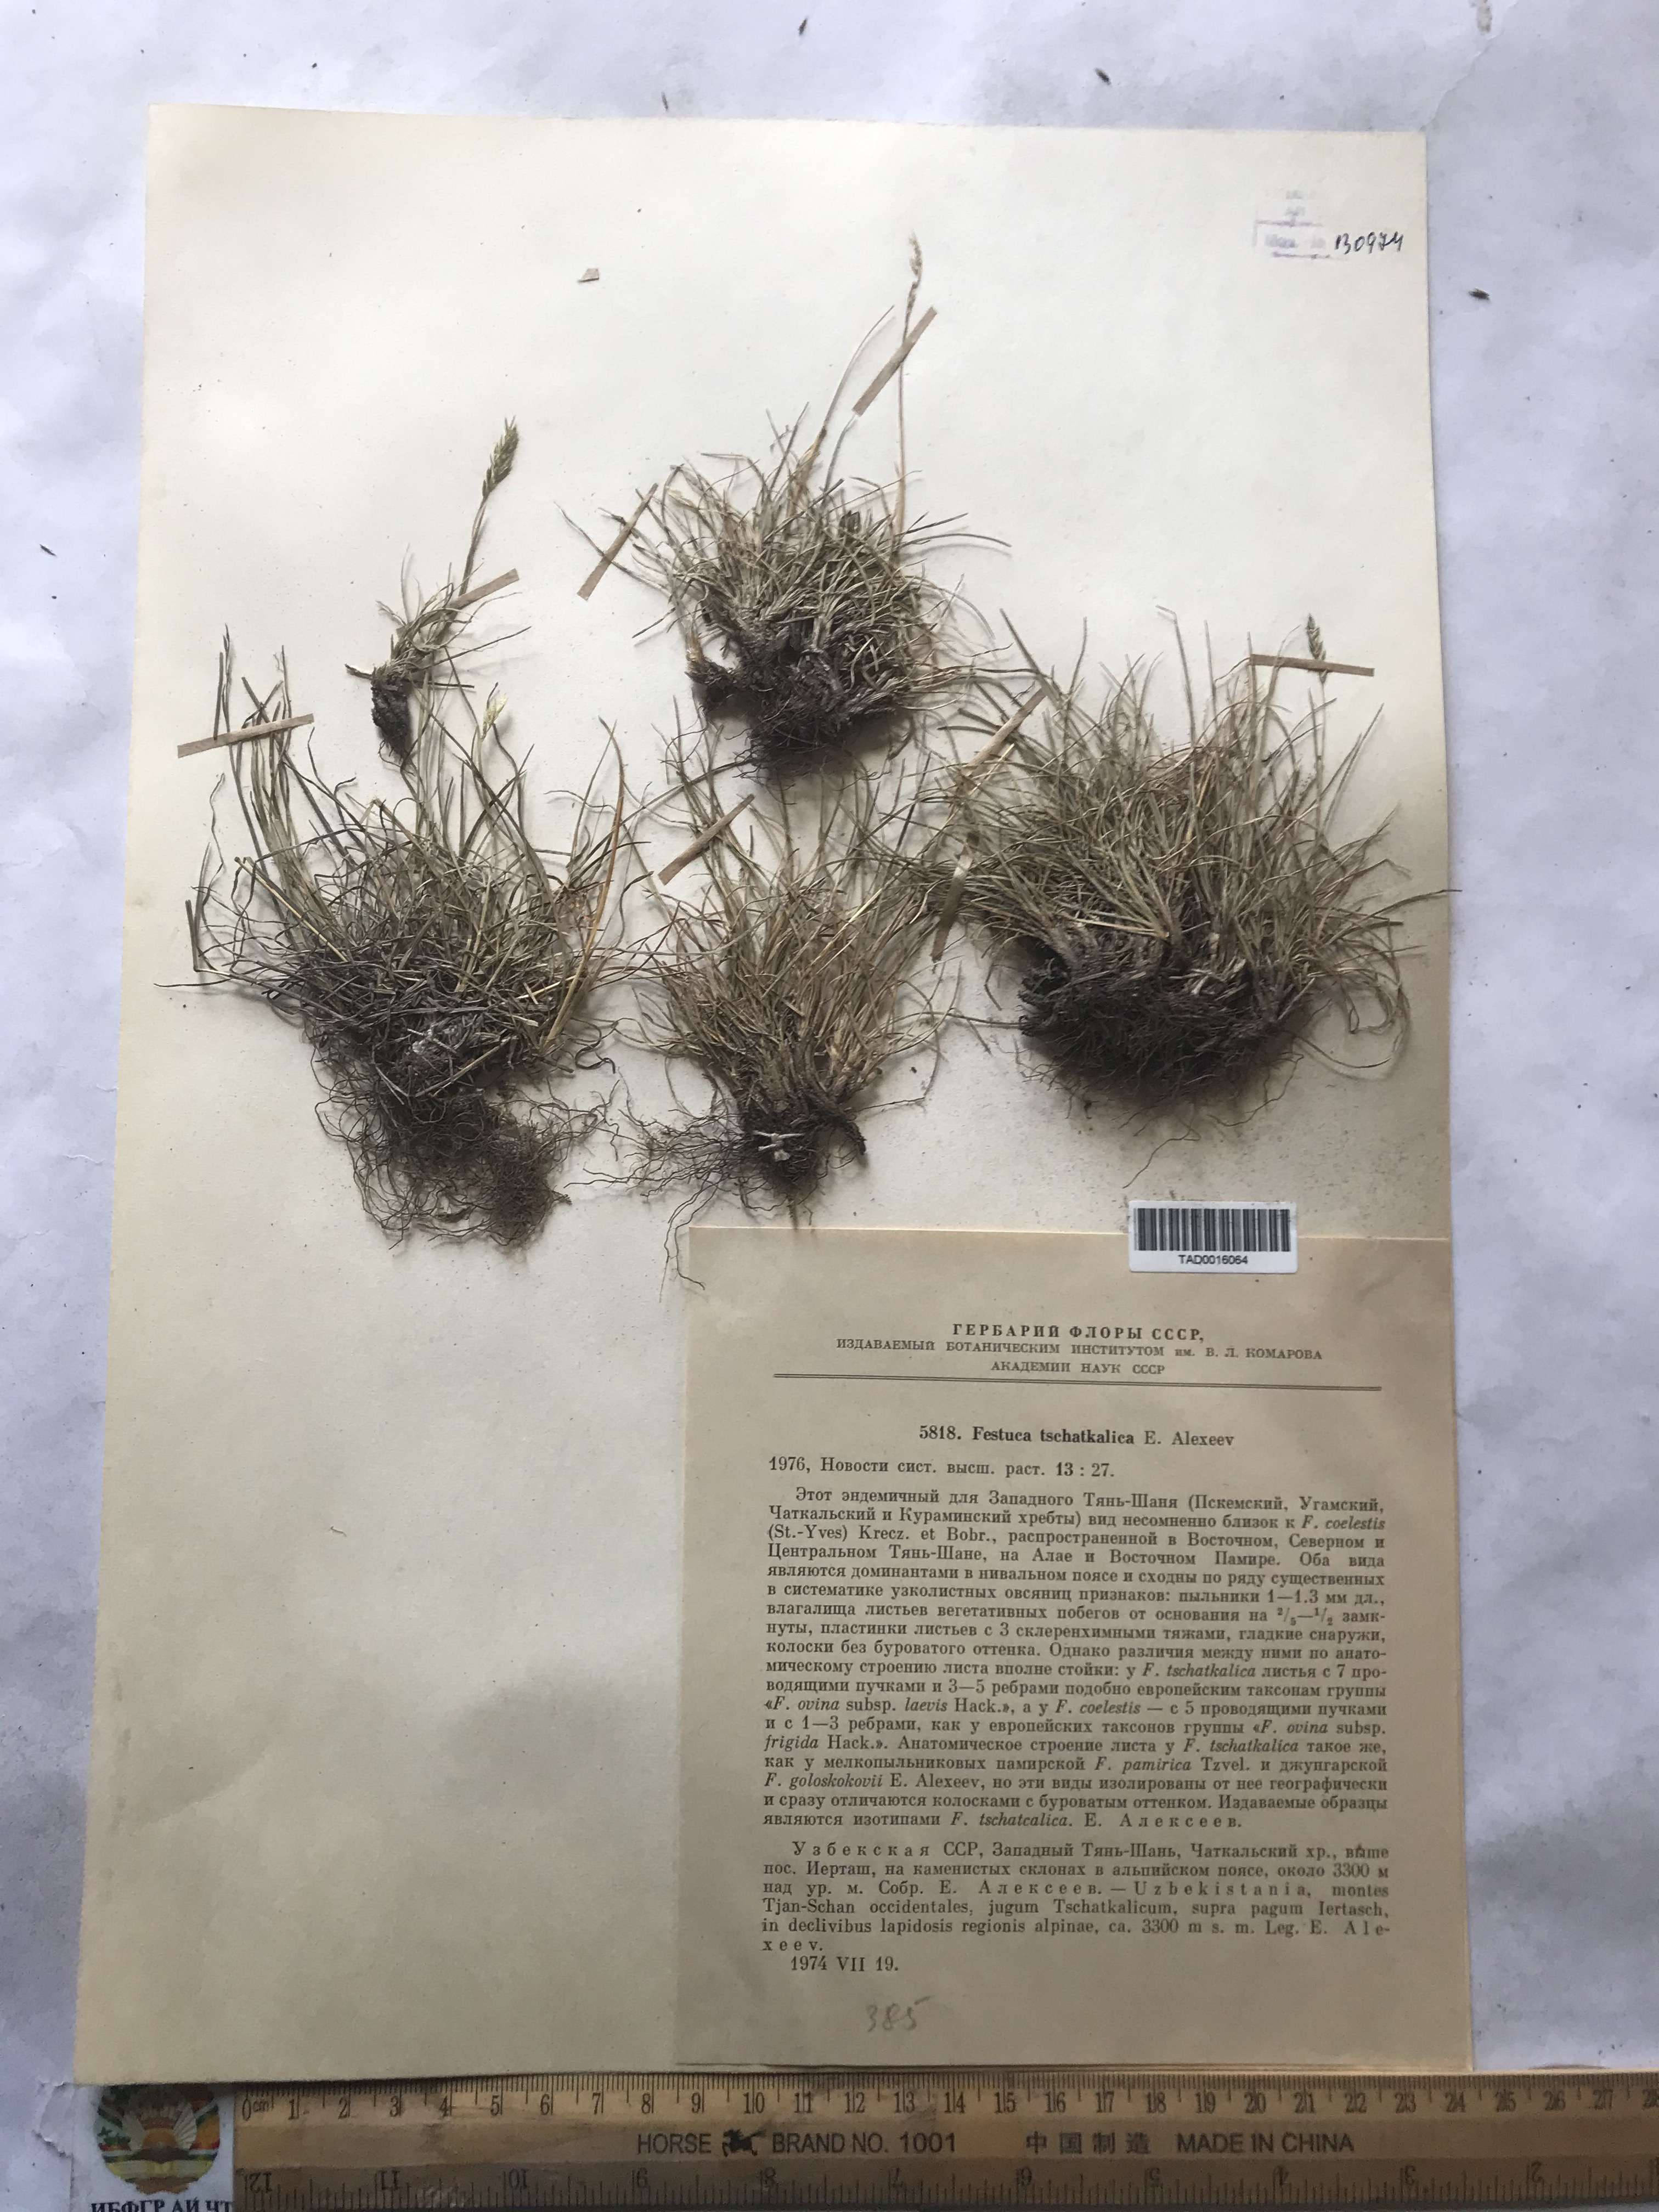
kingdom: Plantae
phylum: Tracheophyta
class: Liliopsida
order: Poales
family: Poaceae
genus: Festuca
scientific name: Festuca tschatkalica
